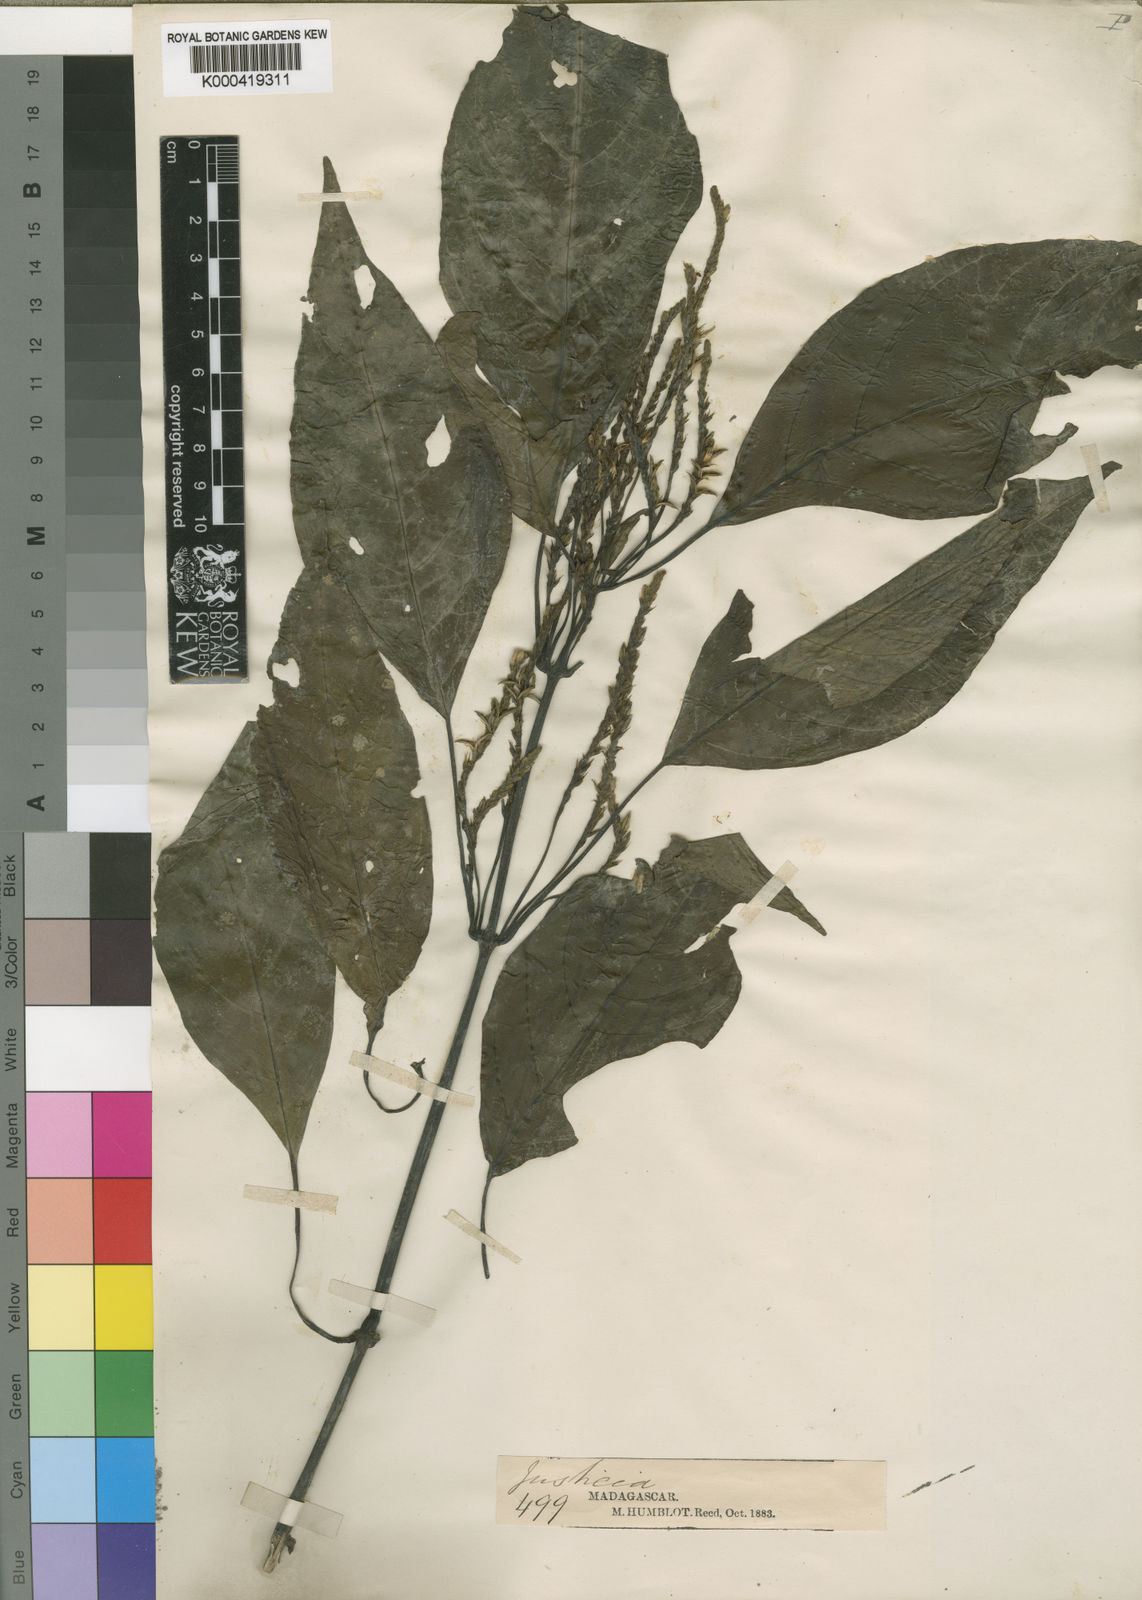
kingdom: Plantae
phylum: Tracheophyta
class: Magnoliopsida
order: Lamiales
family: Acanthaceae
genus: Justicia
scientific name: Justicia humblotii
